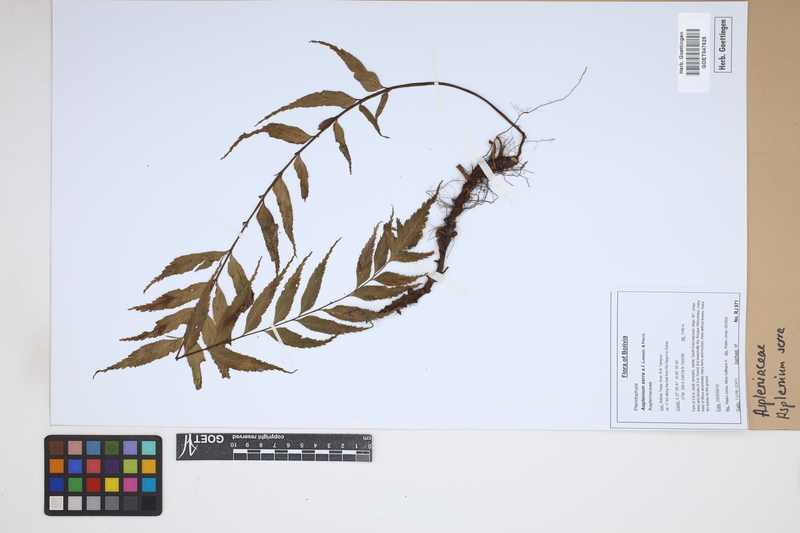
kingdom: Plantae
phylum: Tracheophyta
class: Polypodiopsida
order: Polypodiales
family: Aspleniaceae
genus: Asplenium
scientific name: Asplenium serra
